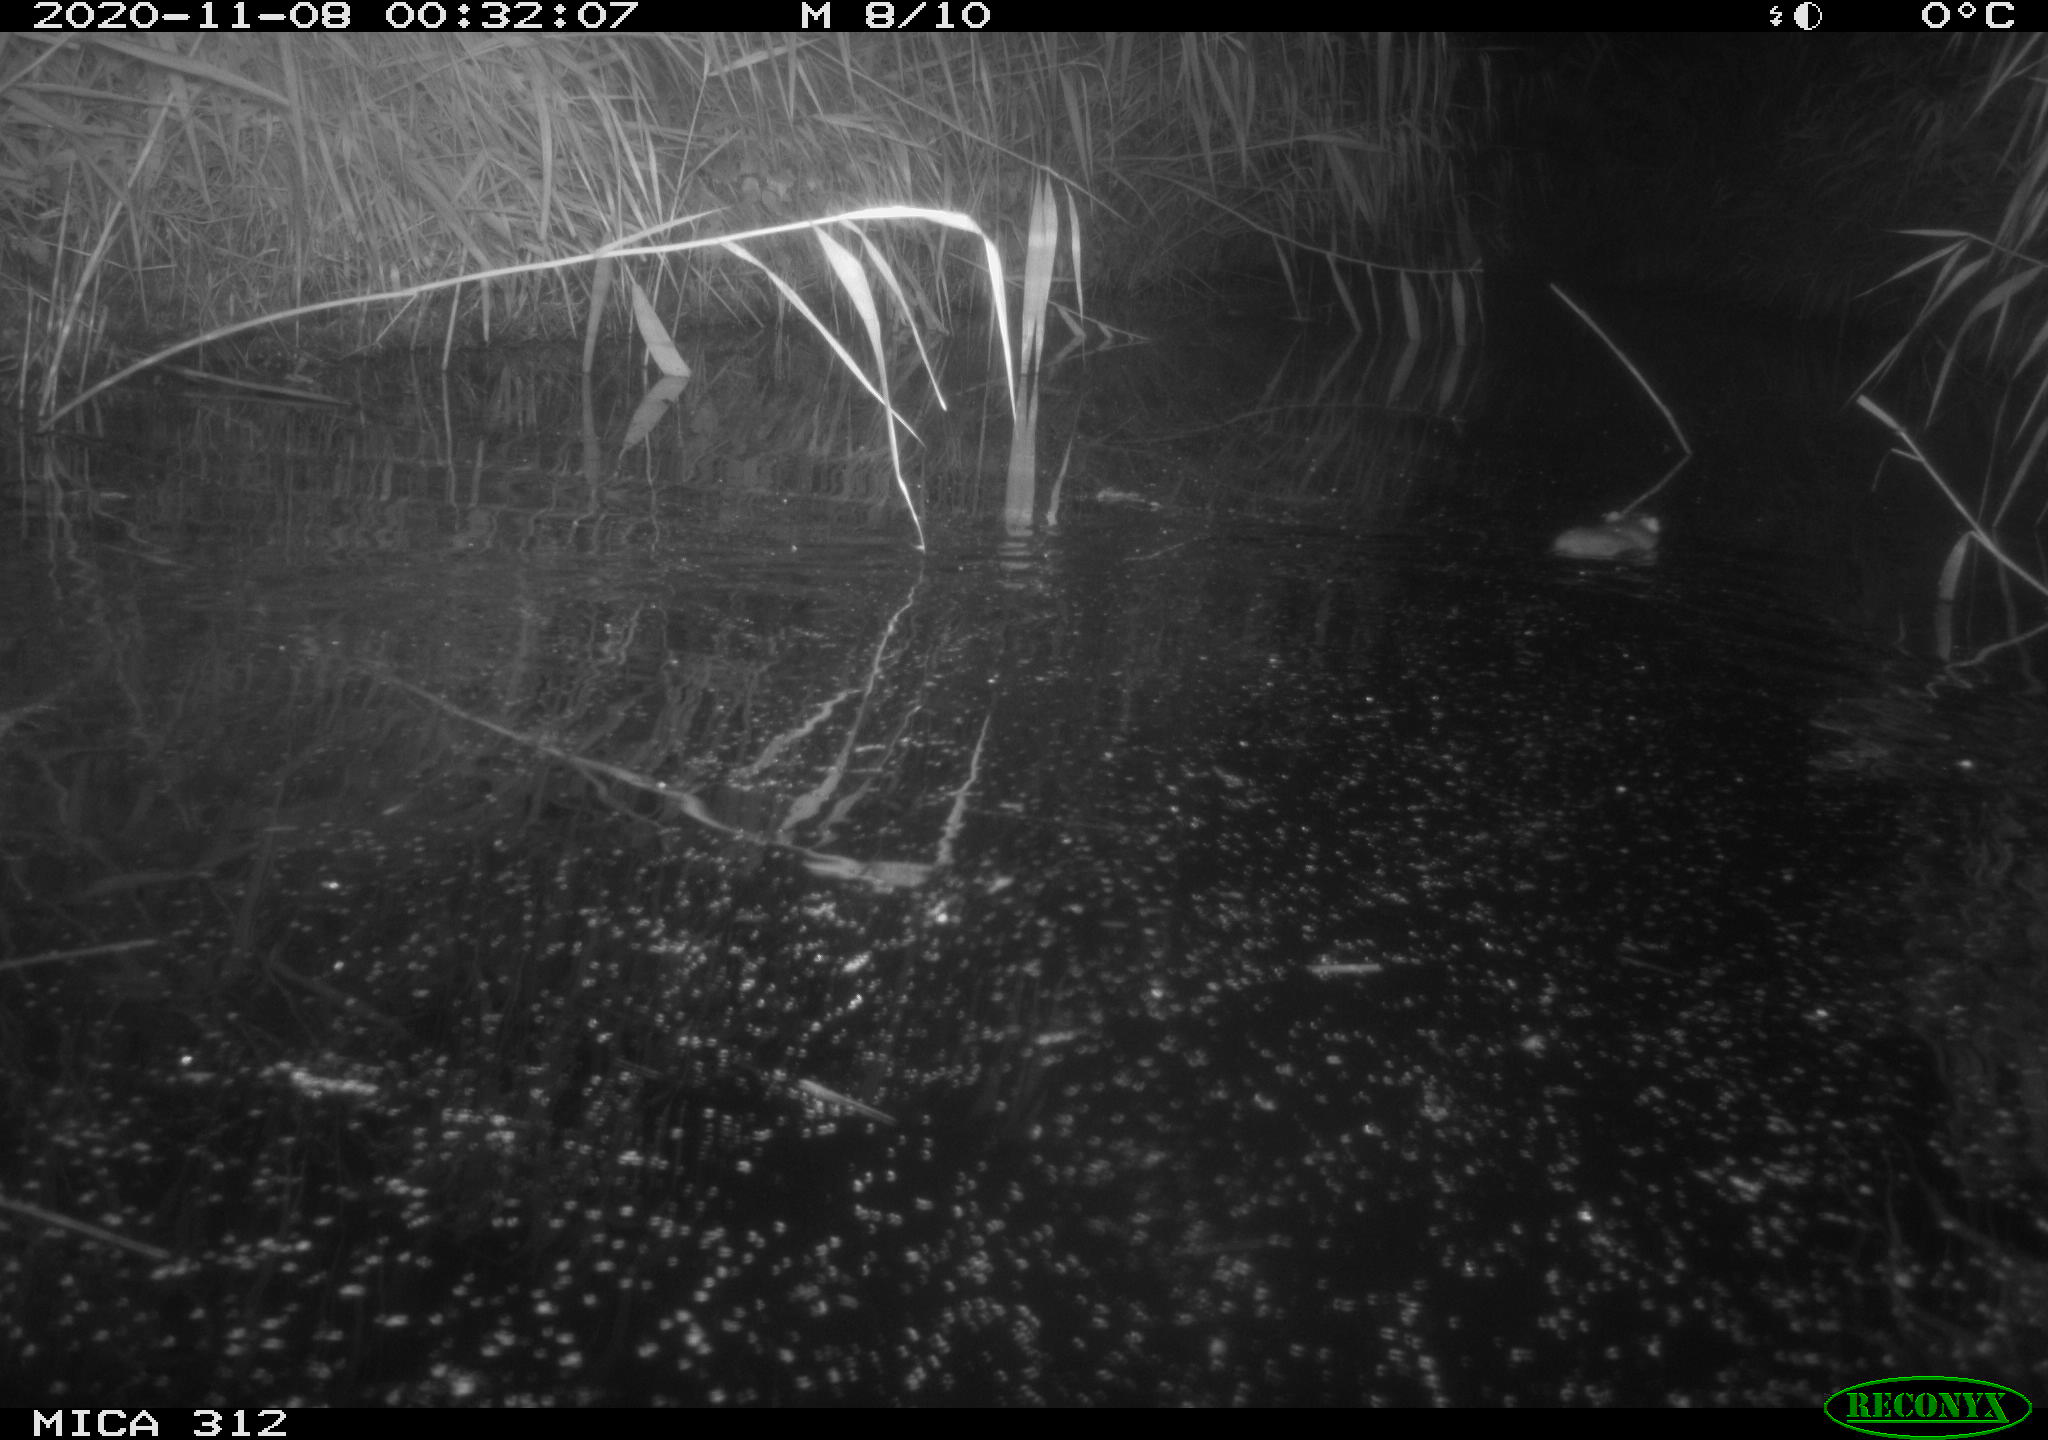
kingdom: Animalia
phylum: Chordata
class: Mammalia
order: Rodentia
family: Muridae
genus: Rattus
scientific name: Rattus norvegicus
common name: Brown rat
